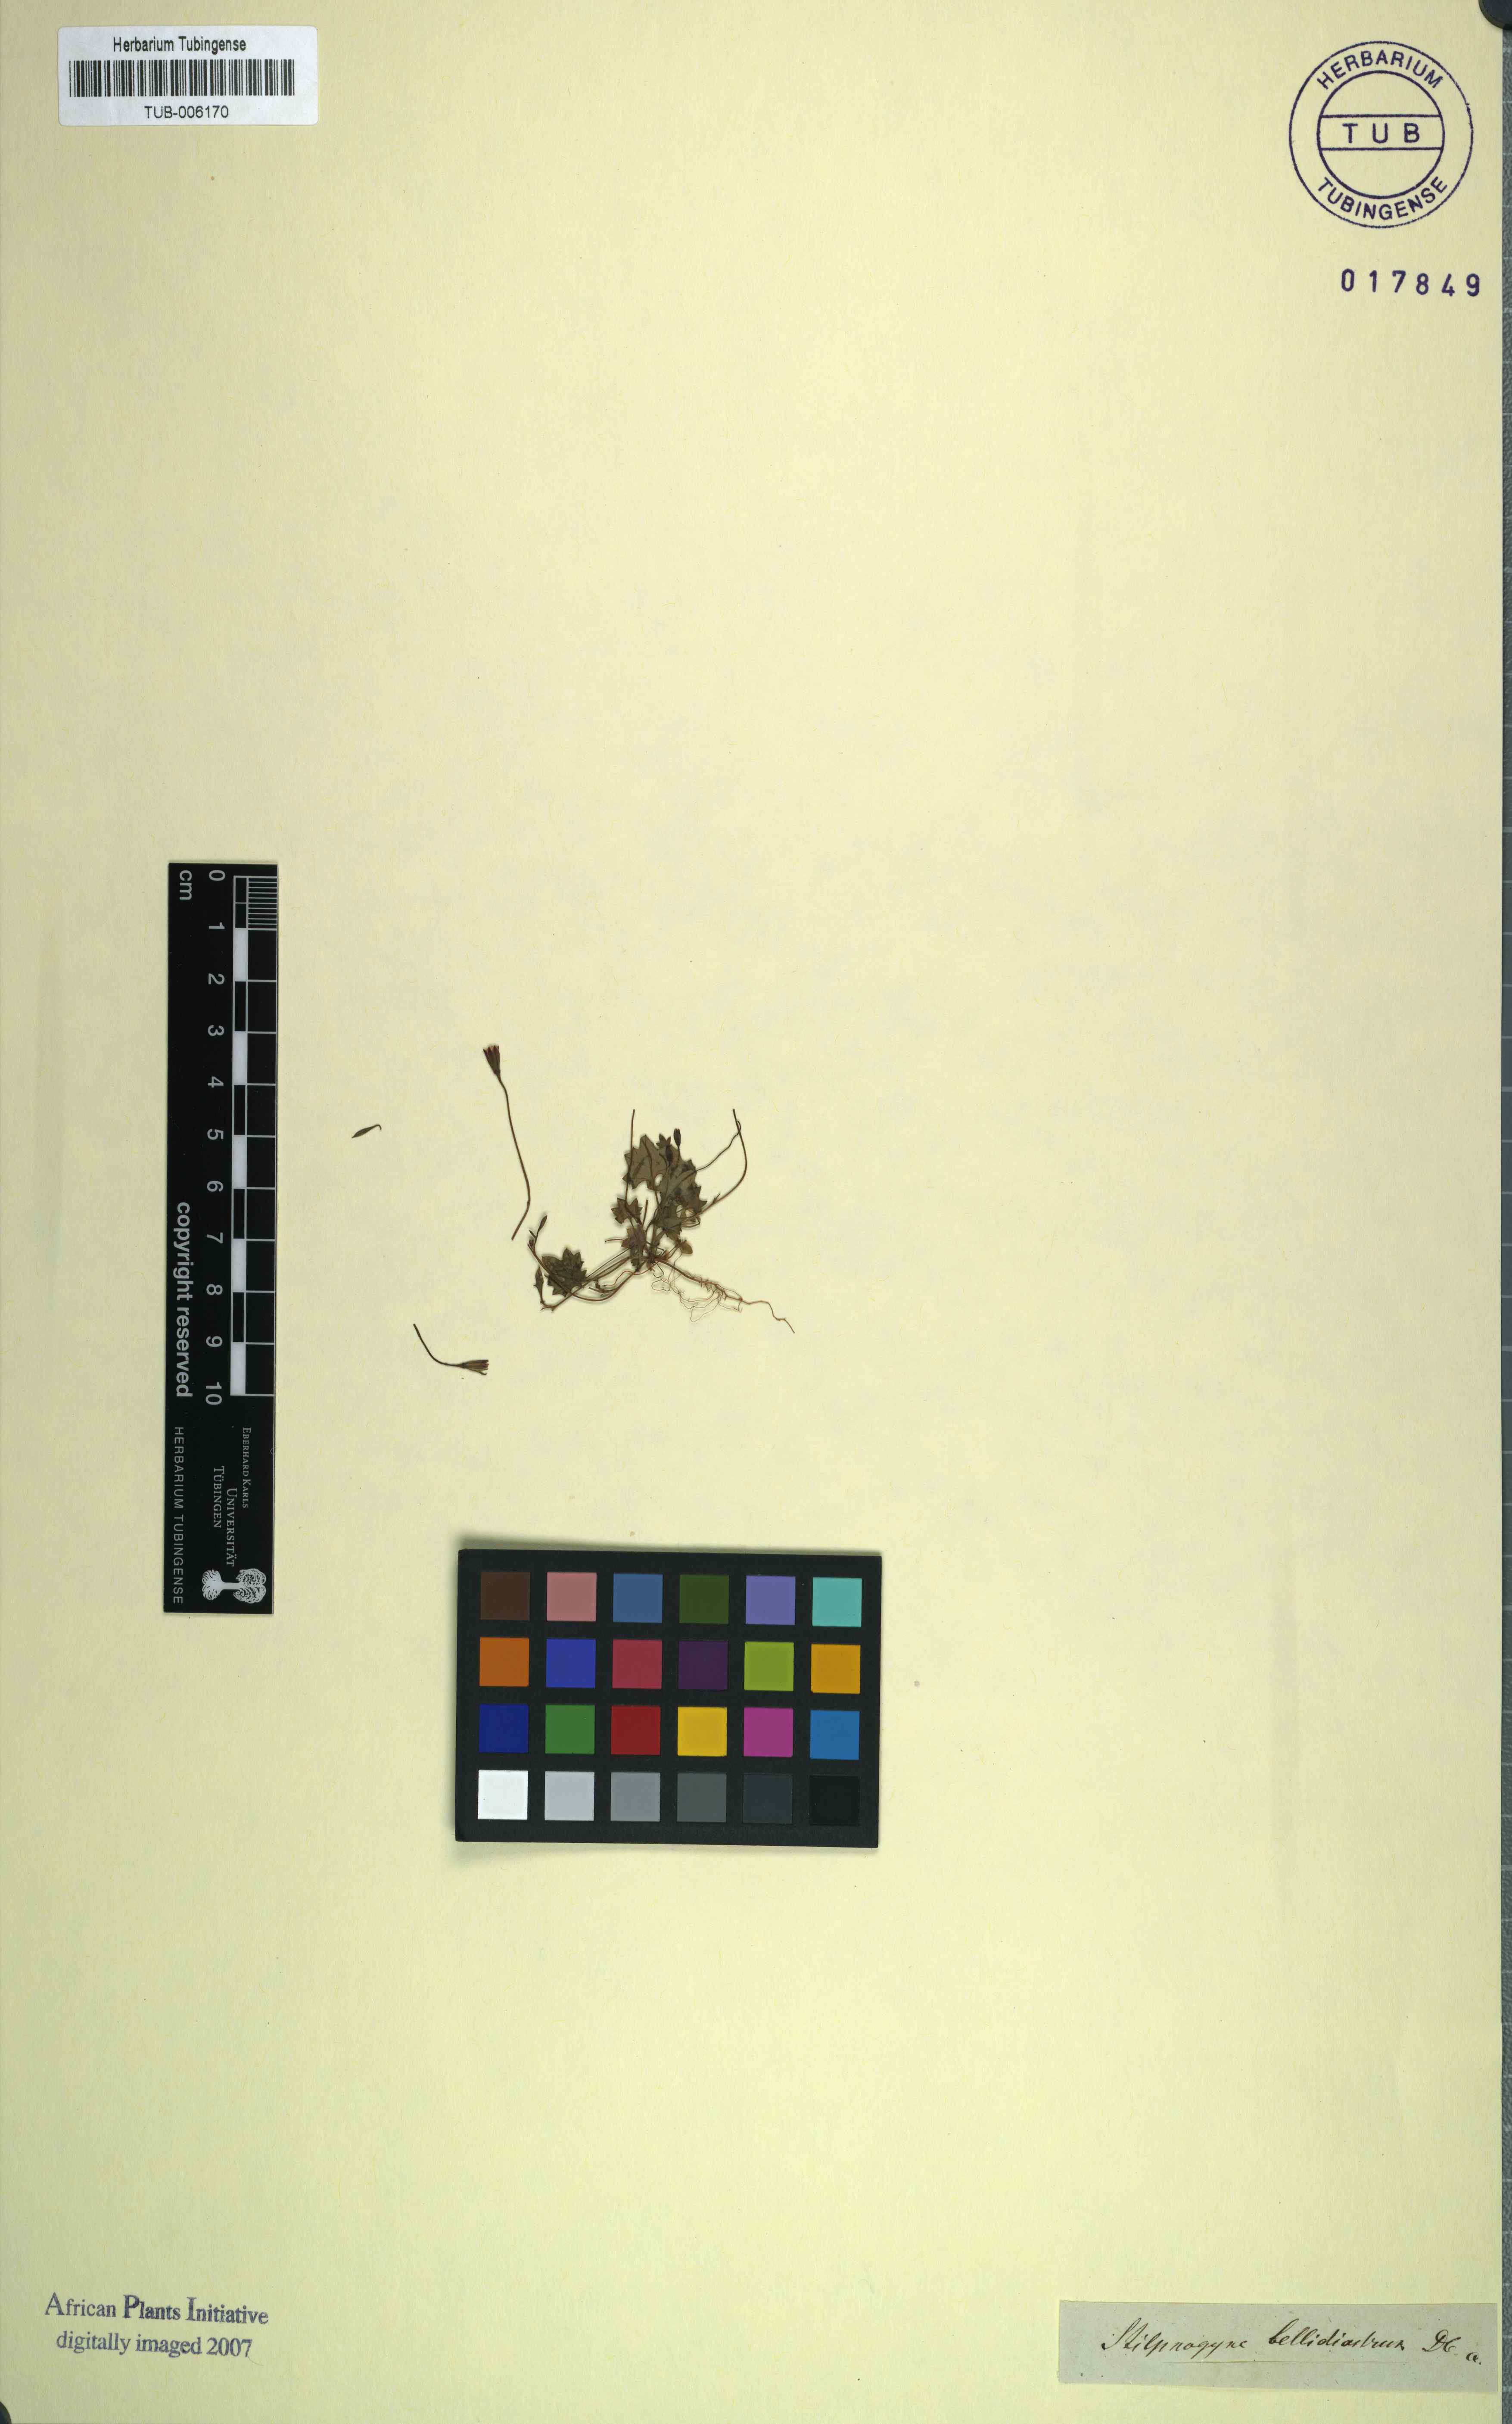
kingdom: Plantae
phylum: Tracheophyta
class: Magnoliopsida
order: Asterales
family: Asteraceae
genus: Stilpnogyne
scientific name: Stilpnogyne bellidioides
